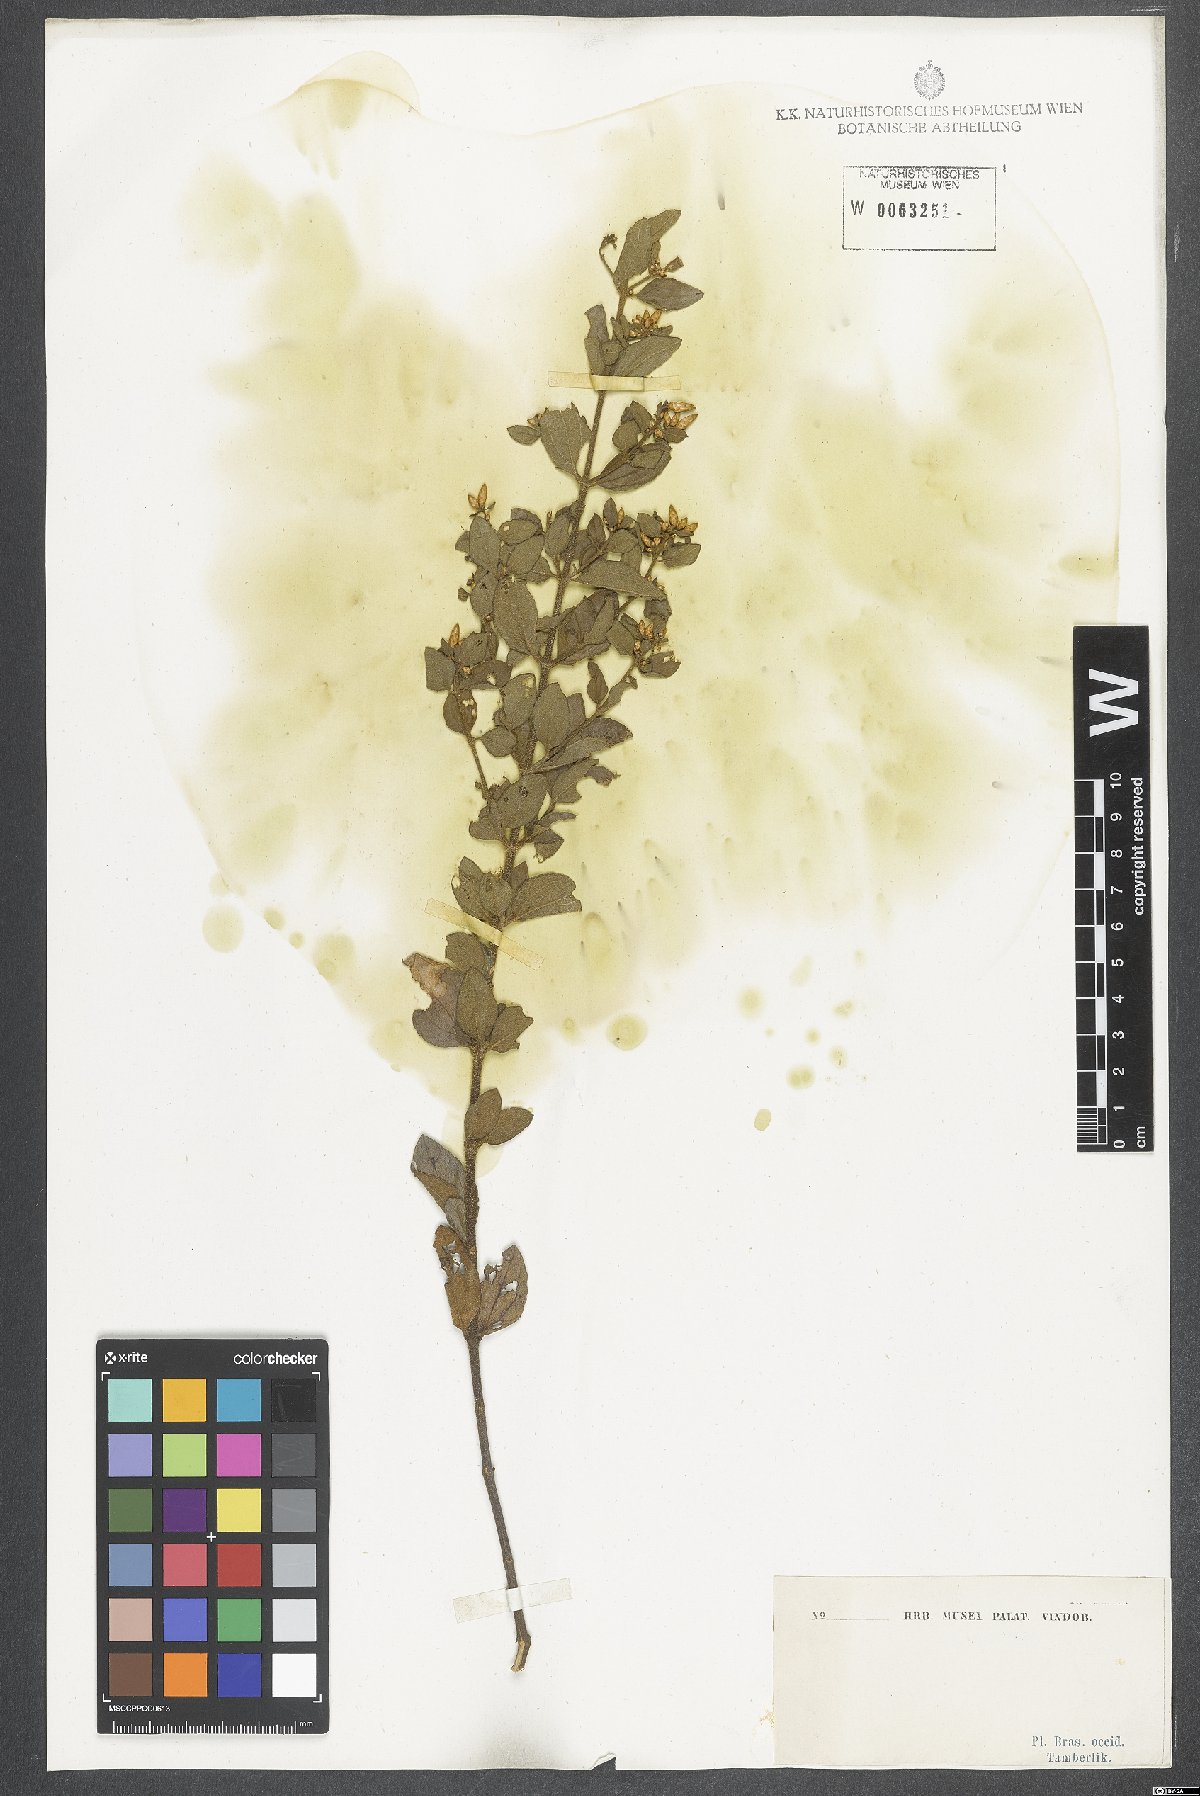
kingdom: Plantae
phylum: Tracheophyta
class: Magnoliopsida
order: Asterales
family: Asteraceae
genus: Chromolaena
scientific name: Chromolaena squalida
